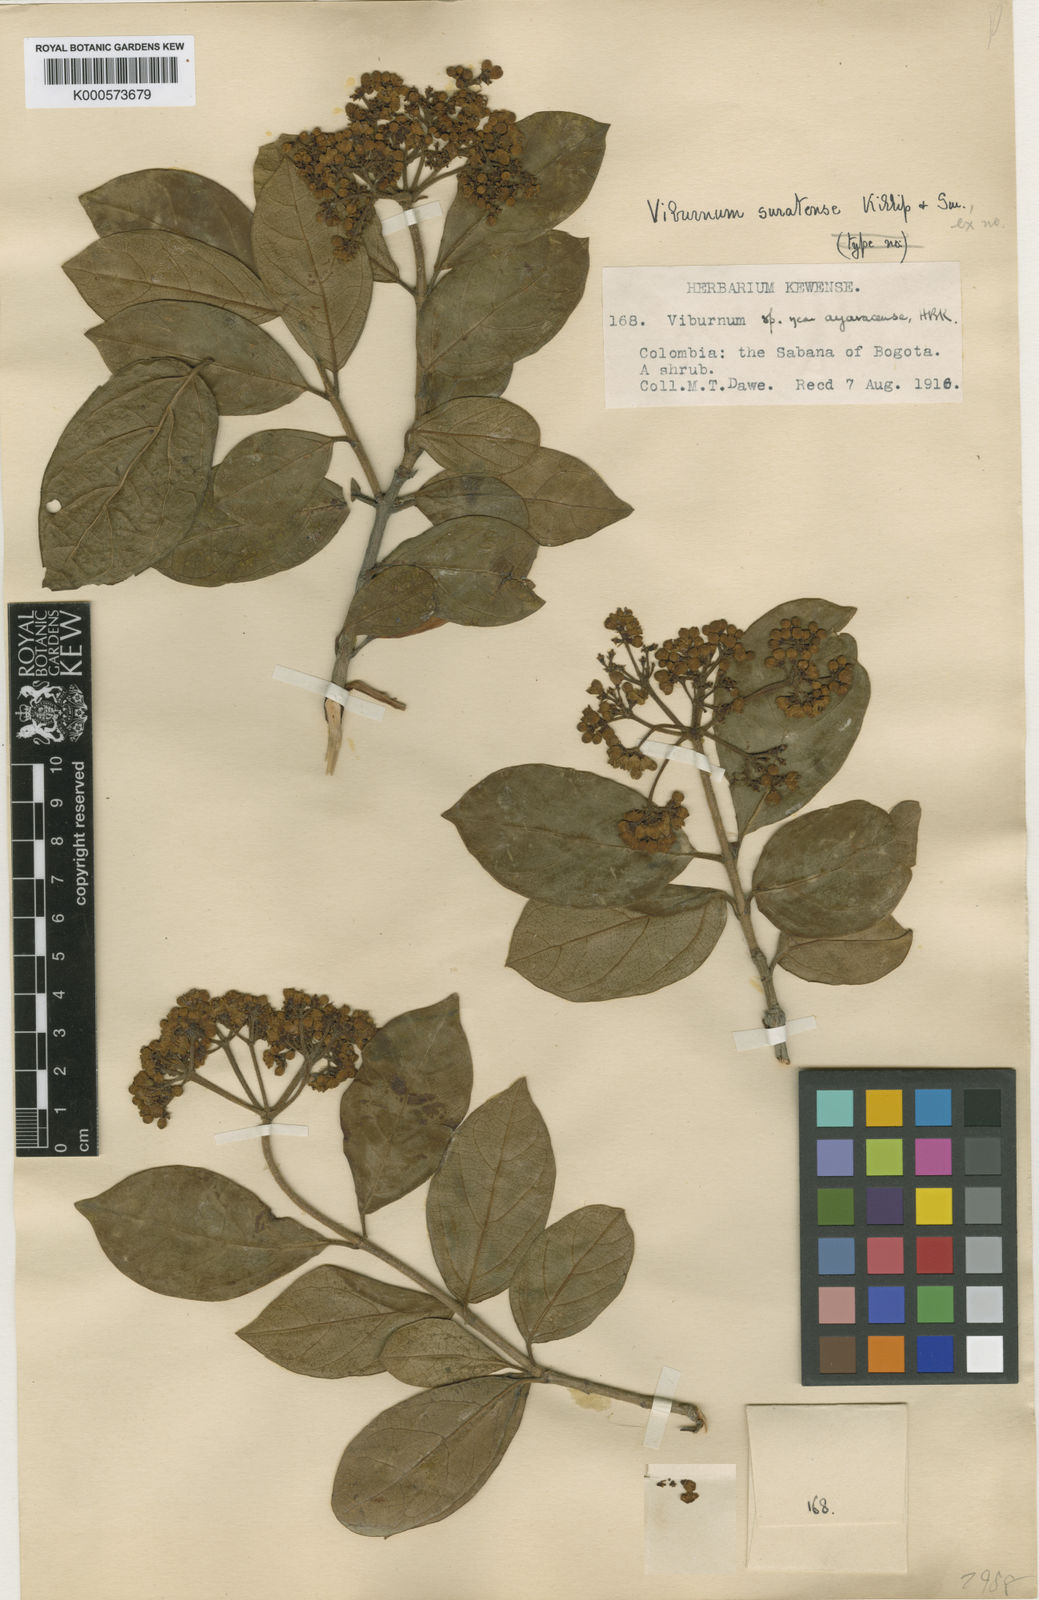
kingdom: Plantae
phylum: Tracheophyta
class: Magnoliopsida
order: Dipsacales
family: Viburnaceae
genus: Viburnum
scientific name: Viburnum suratense
